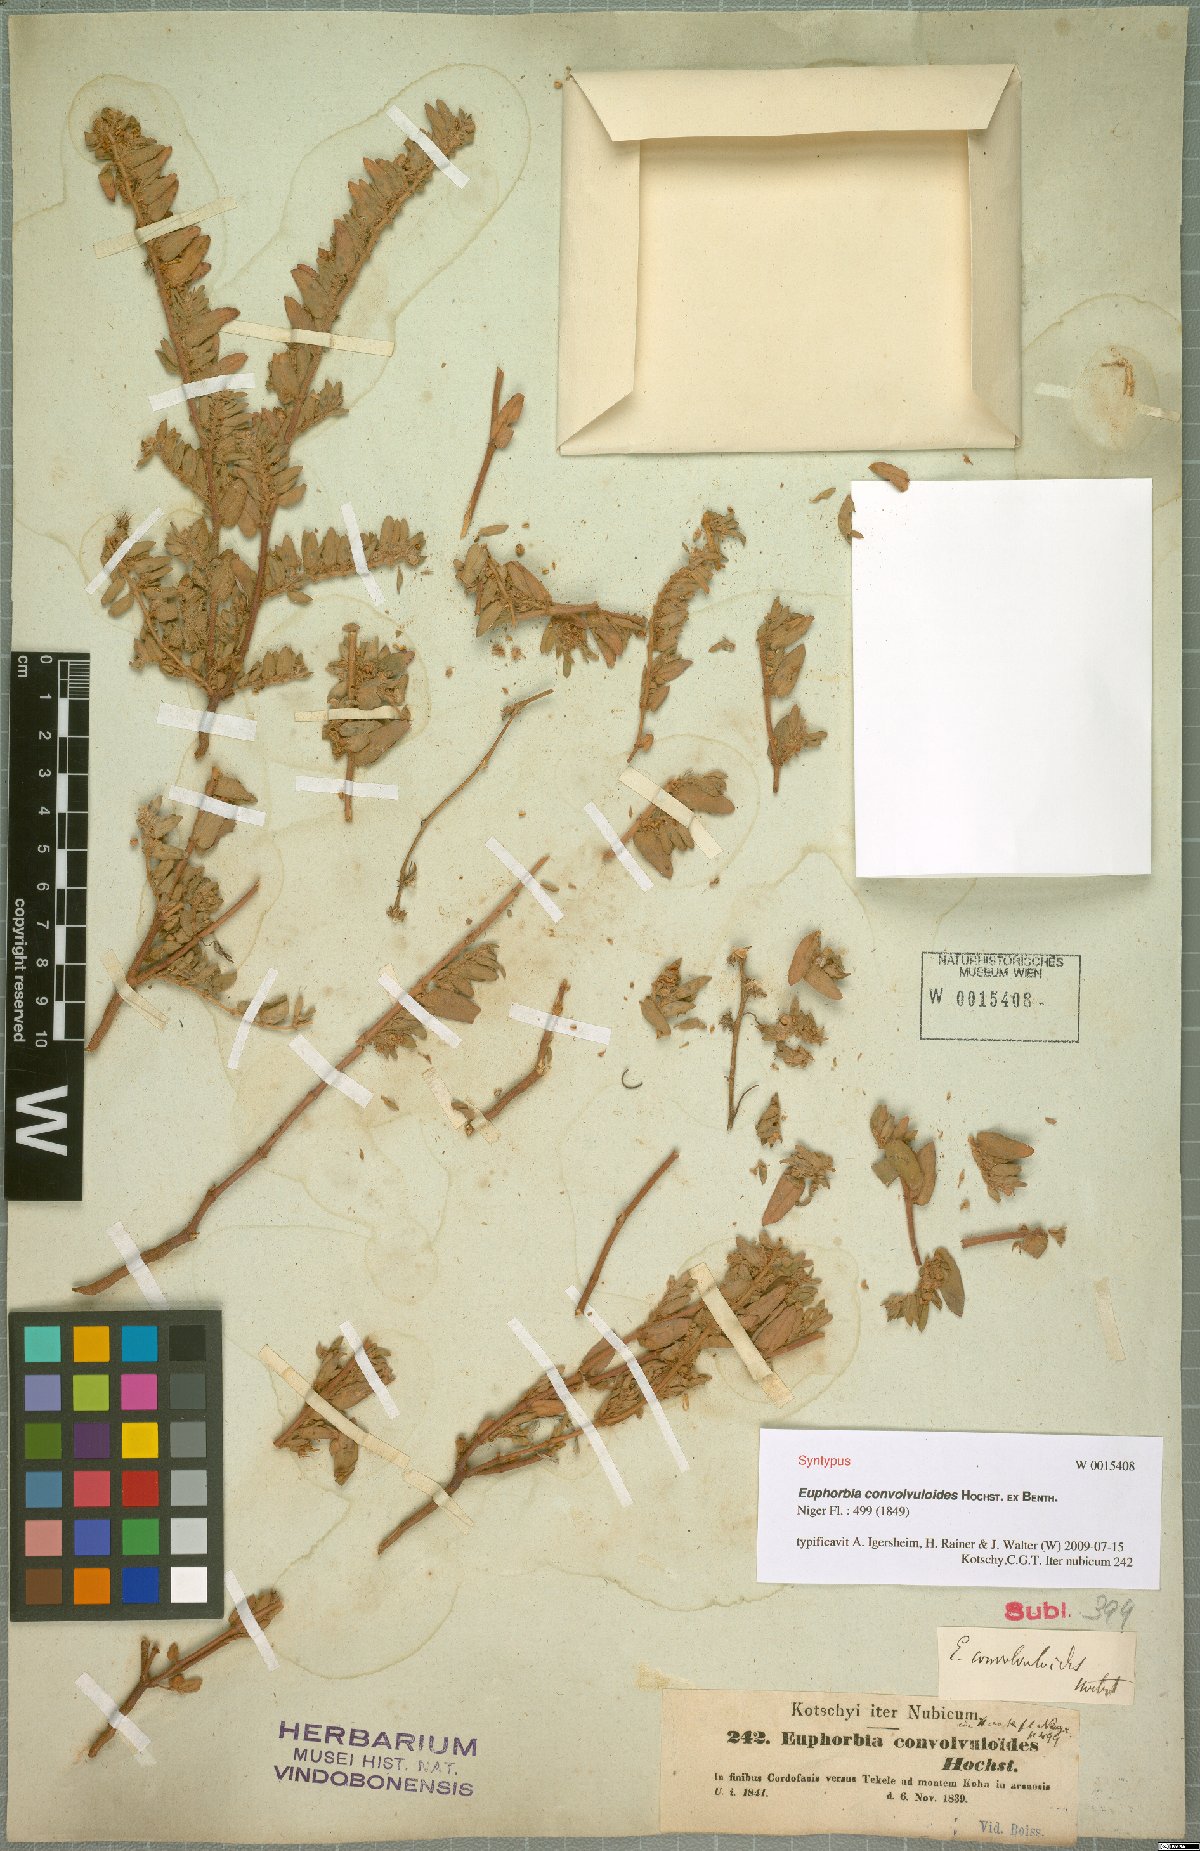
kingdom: Plantae
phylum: Tracheophyta
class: Magnoliopsida
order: Malpighiales
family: Euphorbiaceae
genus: Euphorbia
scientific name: Euphorbia convolvuloides
